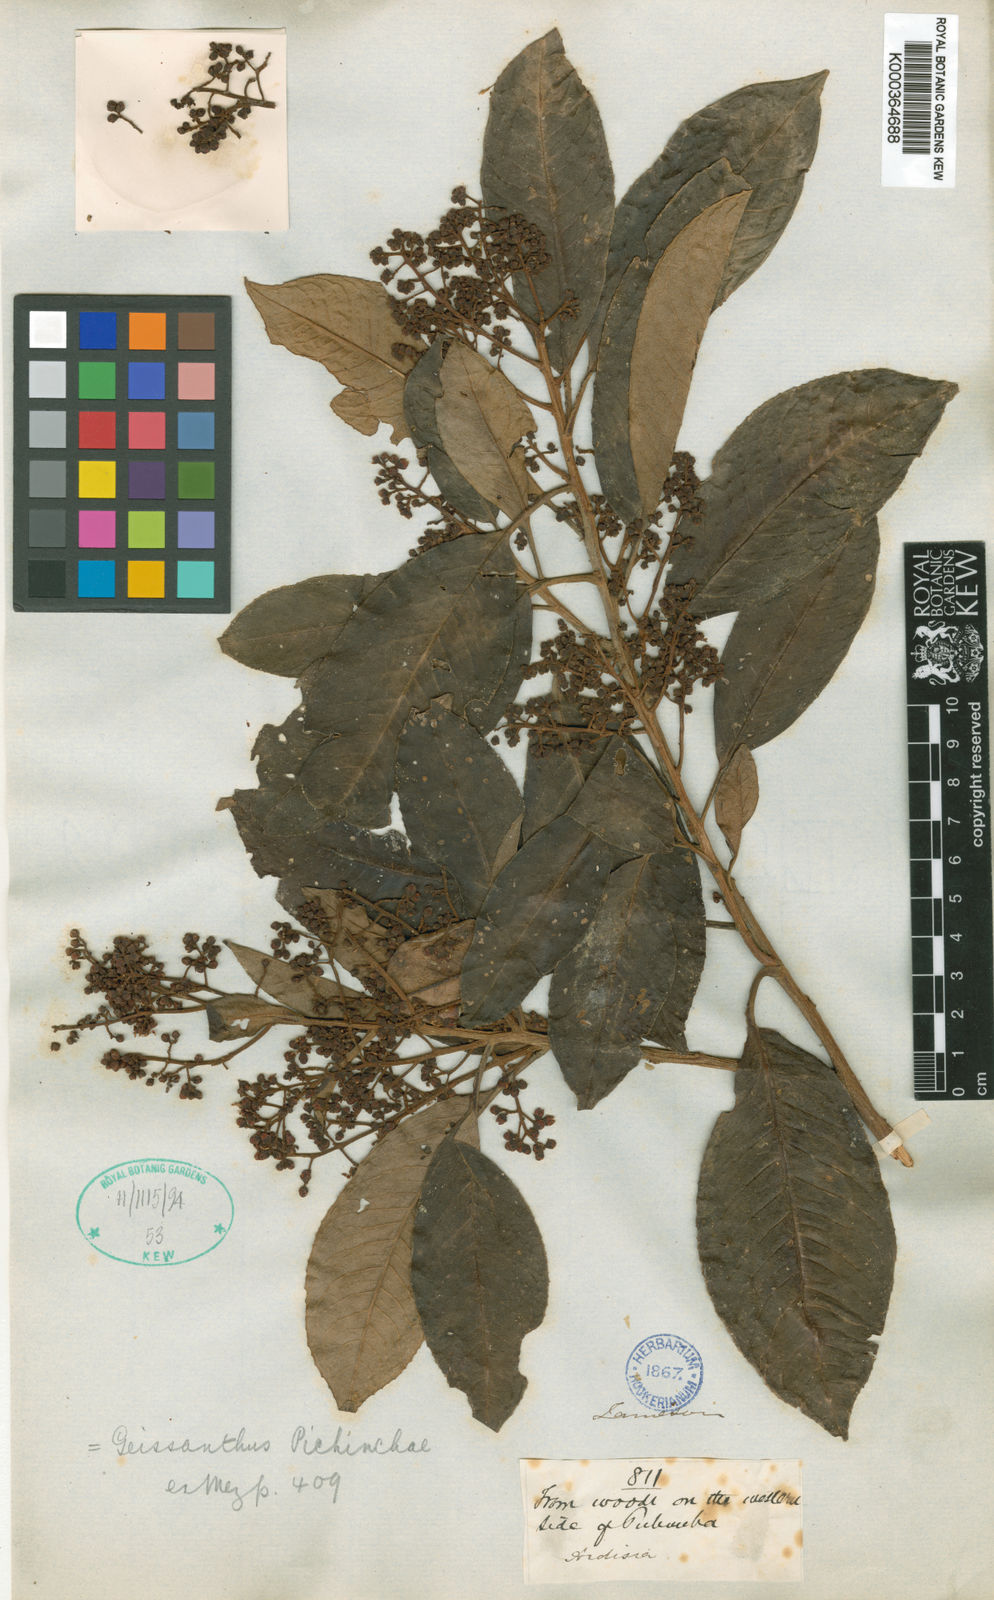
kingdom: Plantae
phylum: Tracheophyta
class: Magnoliopsida
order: Ericales
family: Primulaceae
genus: Geissanthus
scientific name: Geissanthus pichinchae
